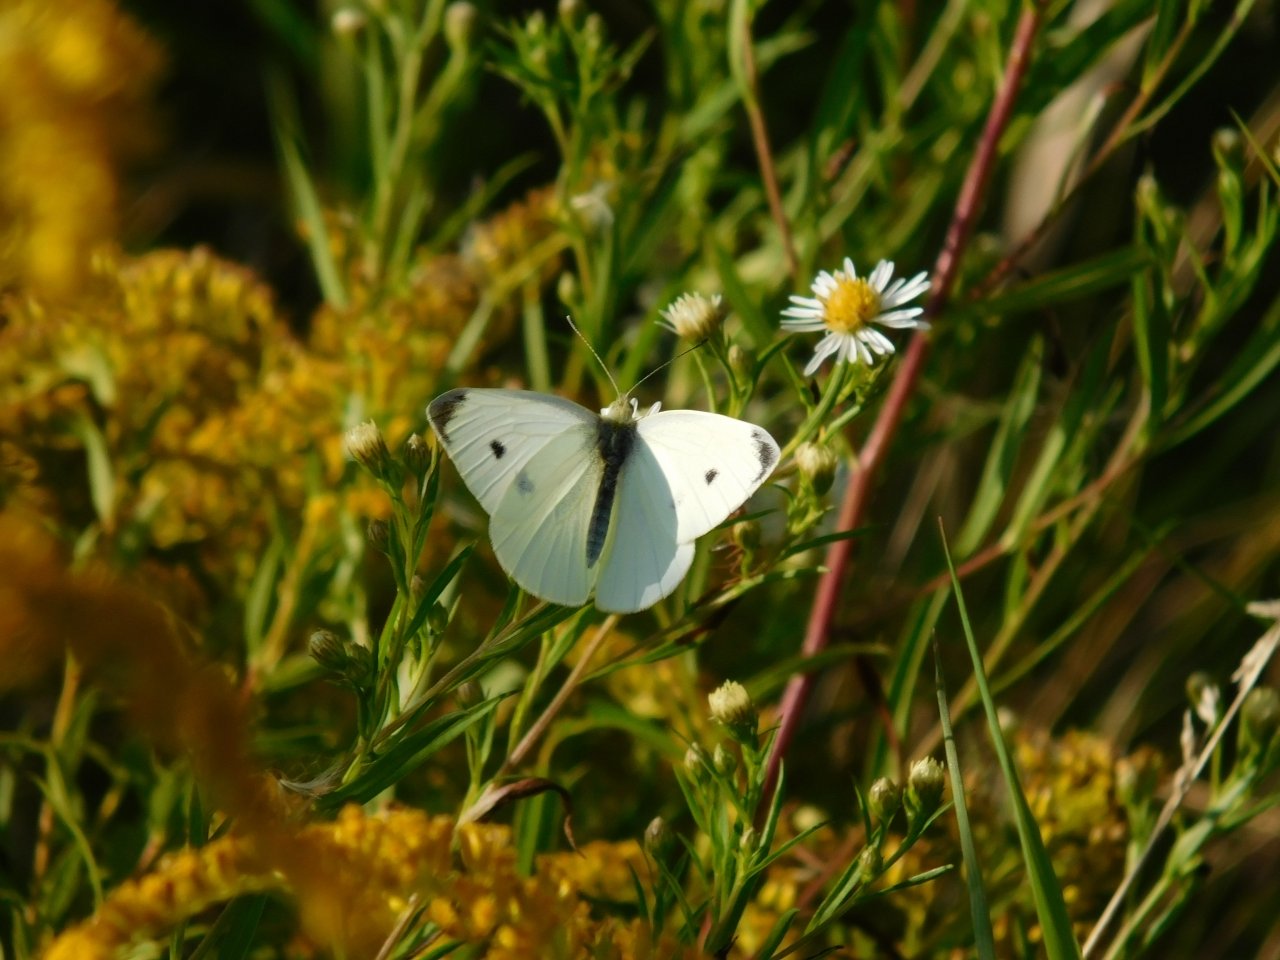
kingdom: Animalia
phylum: Arthropoda
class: Insecta
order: Lepidoptera
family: Pieridae
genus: Pieris
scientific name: Pieris rapae
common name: Cabbage White
